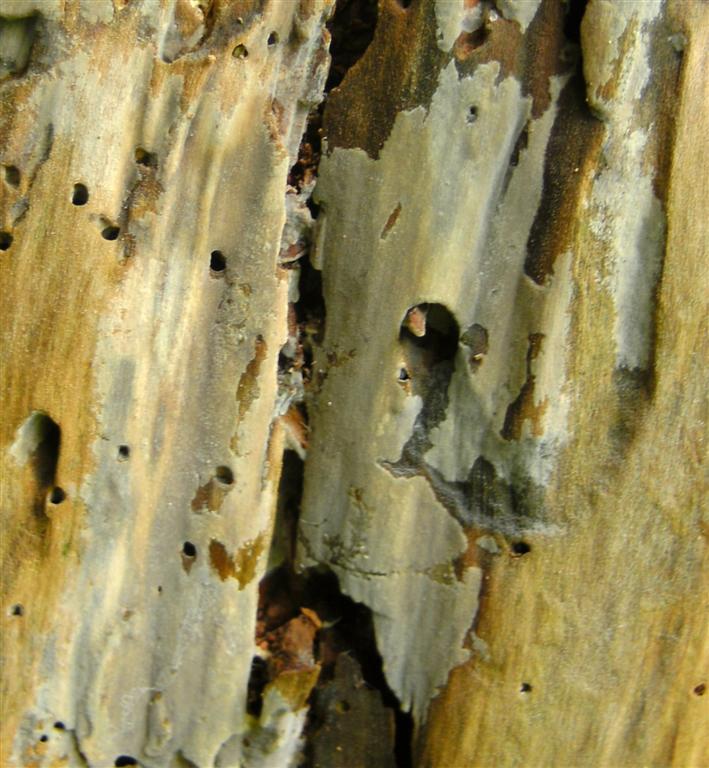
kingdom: Fungi
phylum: Basidiomycota
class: Agaricomycetes
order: Hymenochaetales
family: Rickenellaceae
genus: Peniophorella
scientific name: Peniophorella pubera
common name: dunet kalkskind
